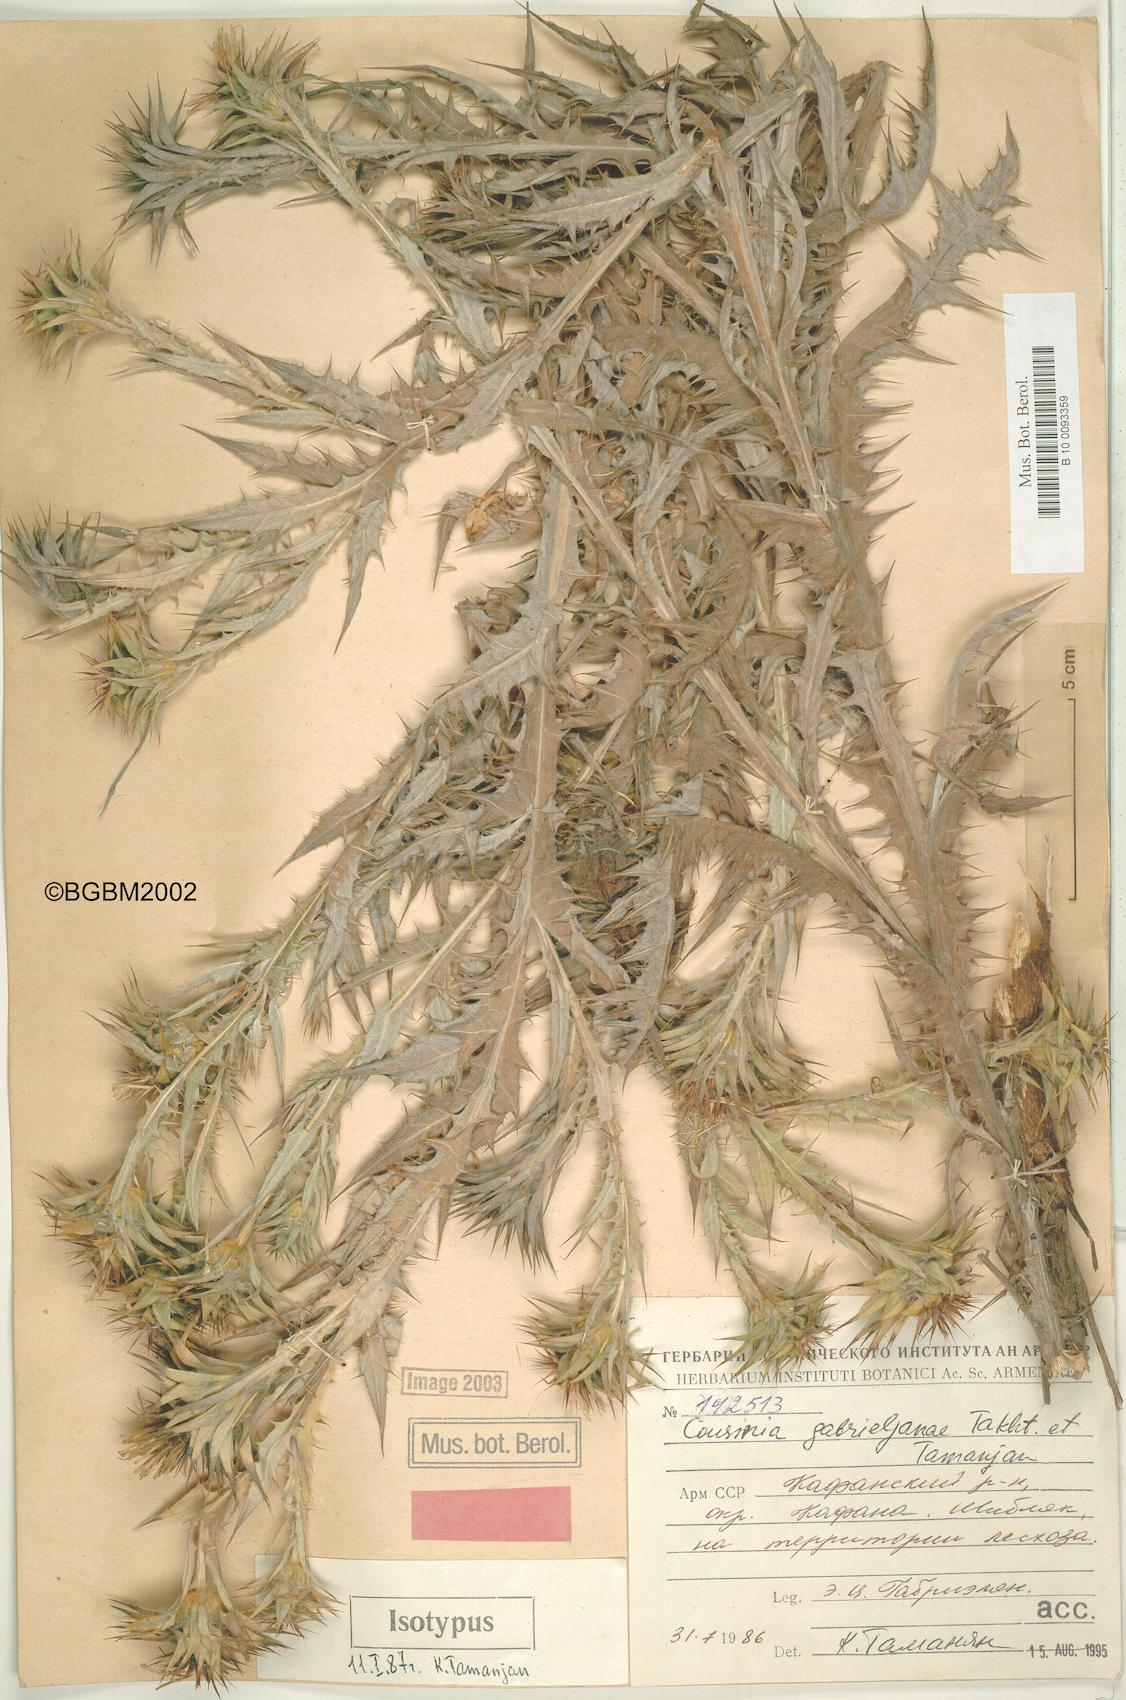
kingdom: Plantae
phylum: Tracheophyta
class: Magnoliopsida
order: Asterales
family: Asteraceae
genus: Cousinia
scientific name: Cousinia macrocephala
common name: Macrocephalous cousinia
